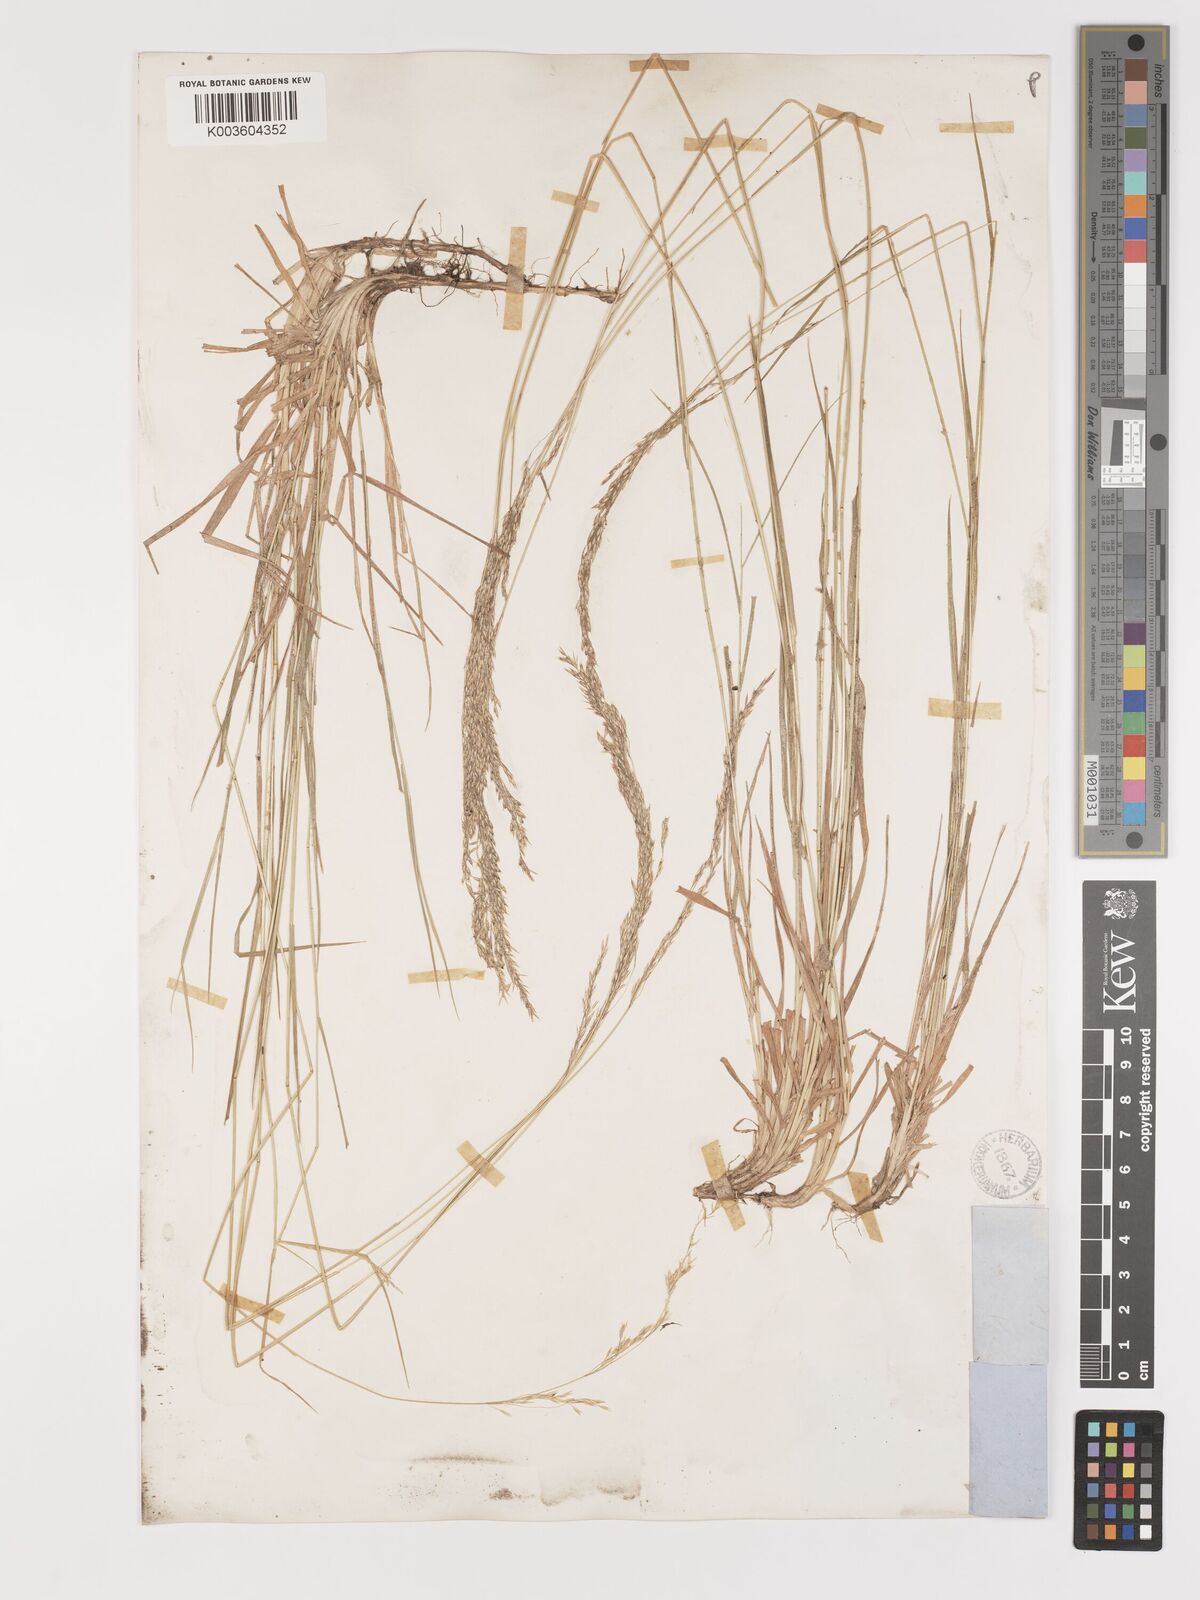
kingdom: Plantae
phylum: Tracheophyta
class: Liliopsida
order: Poales
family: Poaceae
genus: Agrostis
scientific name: Agrostis exarata
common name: Spike bent
